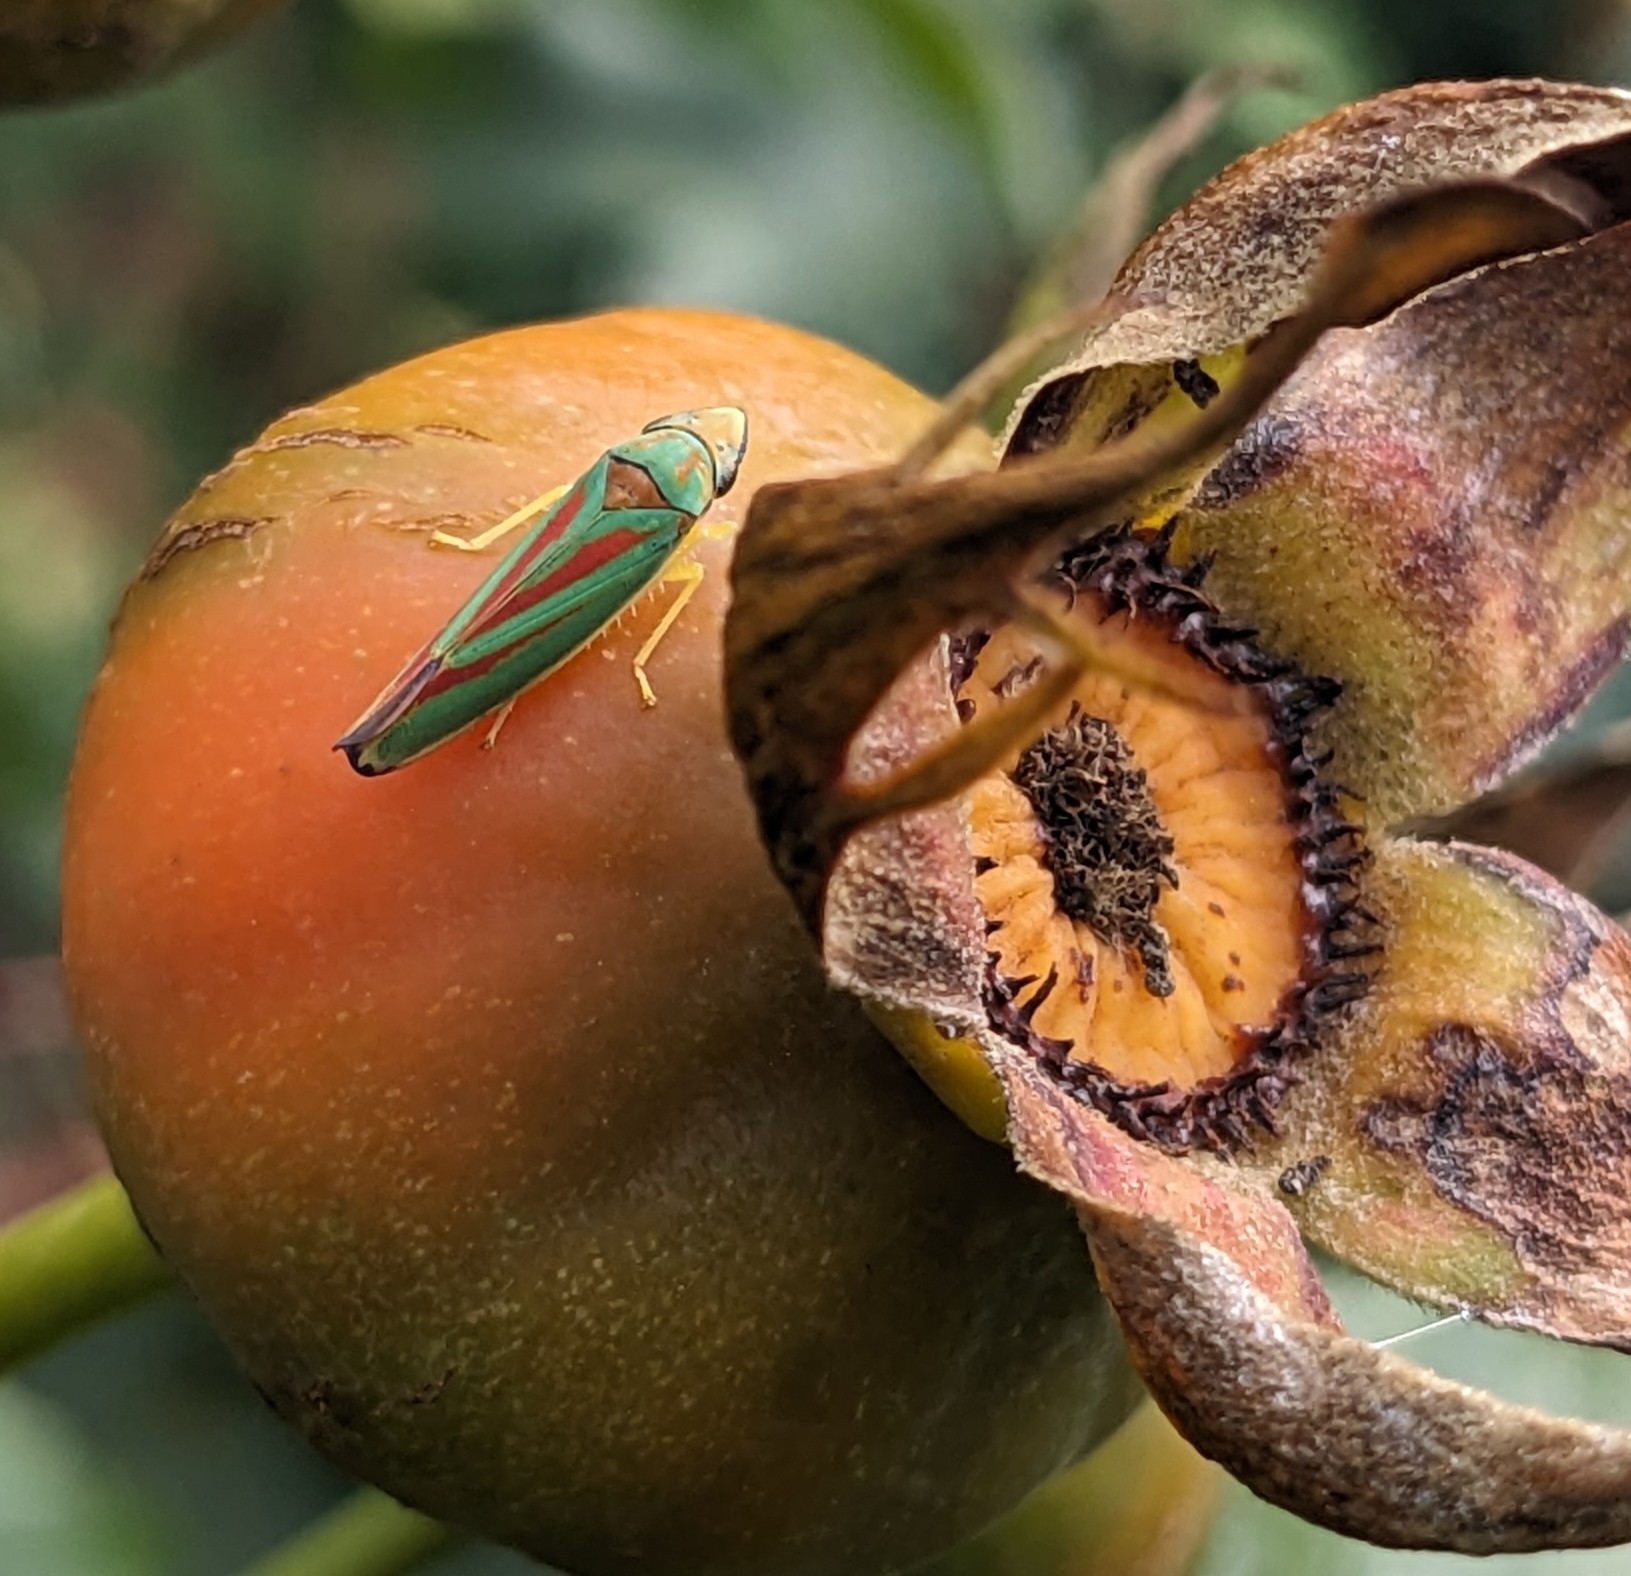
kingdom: Animalia
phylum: Arthropoda
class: Insecta
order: Hemiptera
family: Cicadellidae
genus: Graphocephala
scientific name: Graphocephala fennahi
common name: Rododendroncikade
